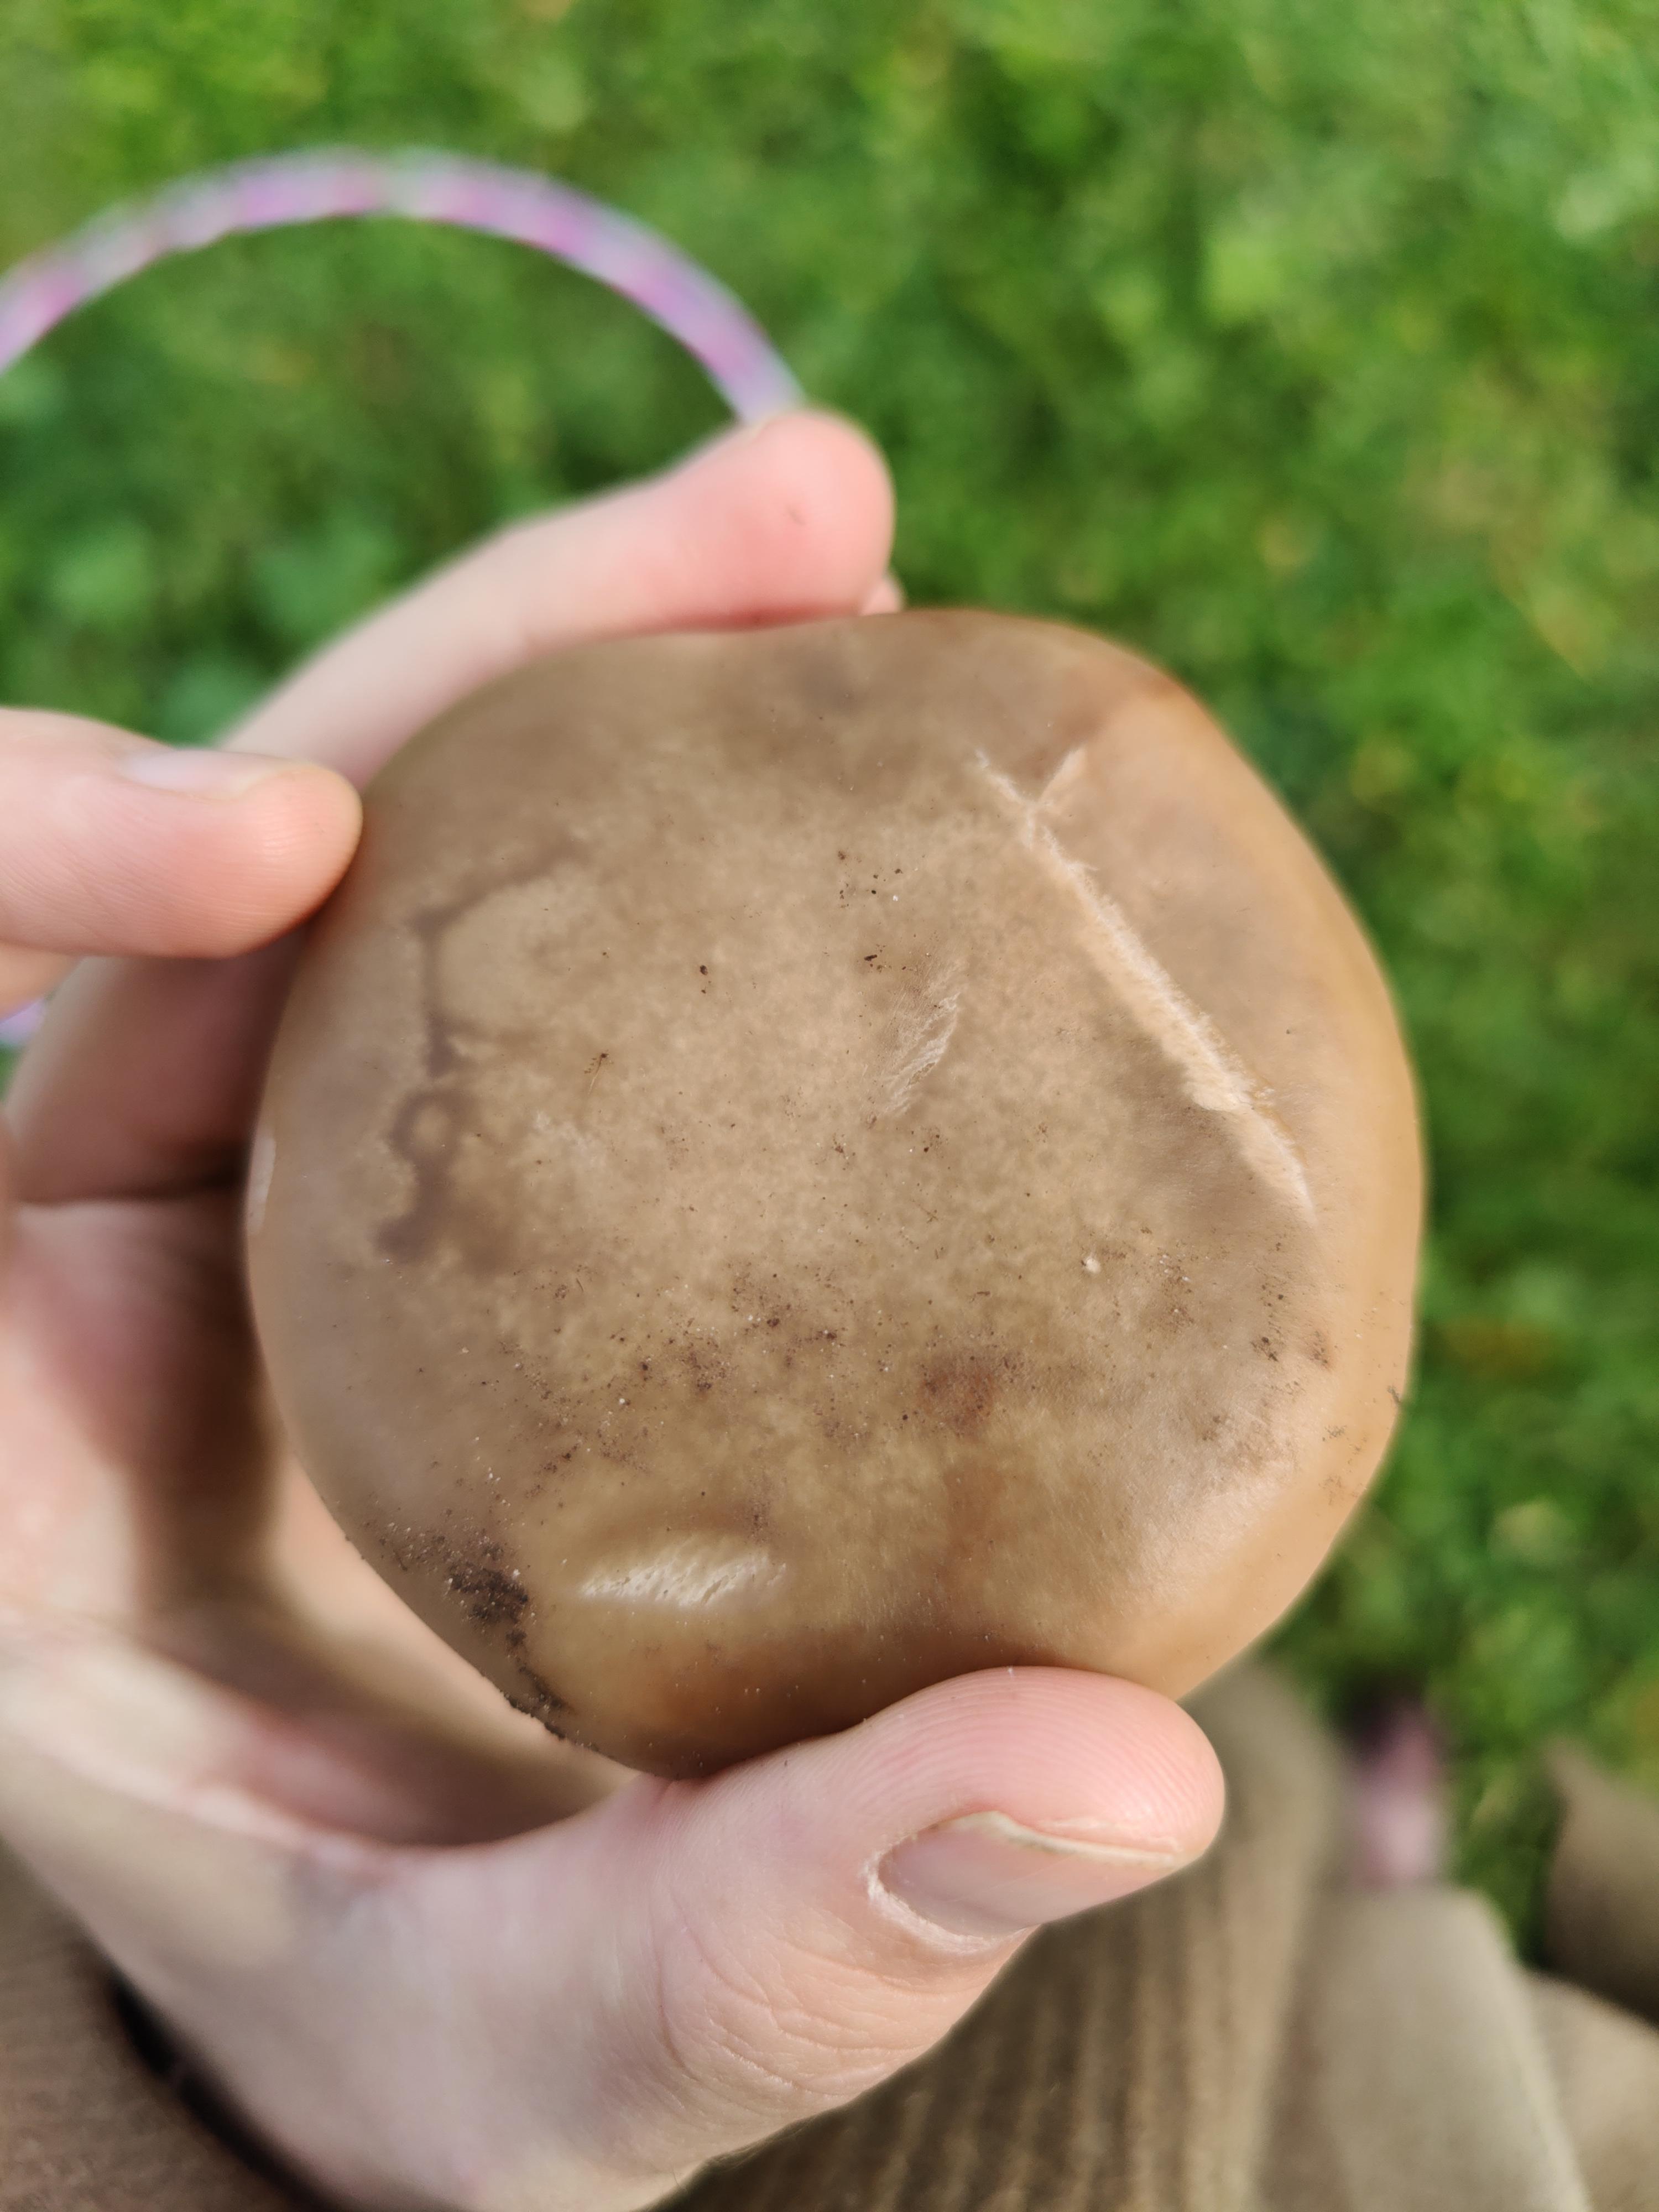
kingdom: Fungi
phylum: Basidiomycota
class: Agaricomycetes
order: Agaricales
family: Tricholomataceae
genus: Lepista
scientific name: Lepista personata
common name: bleg hekseringshat
